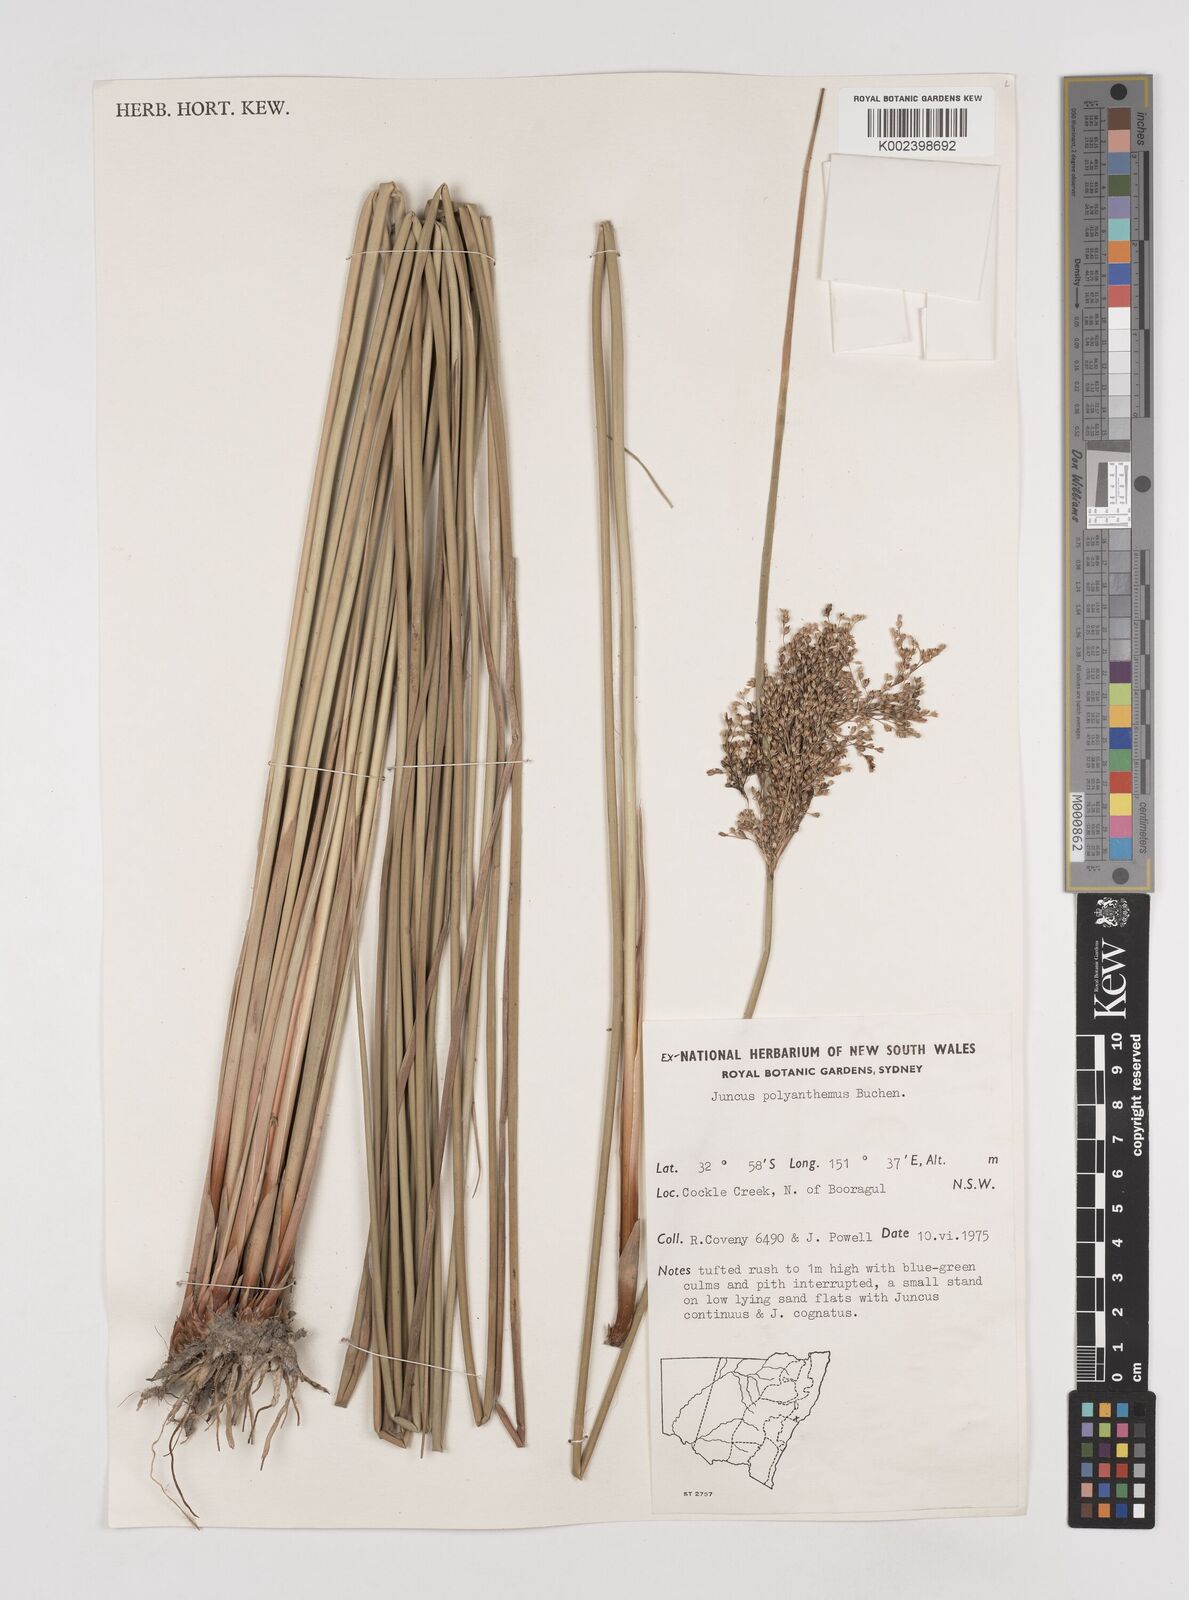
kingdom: Plantae
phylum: Tracheophyta
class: Liliopsida
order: Poales
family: Juncaceae
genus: Juncus
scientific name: Juncus
